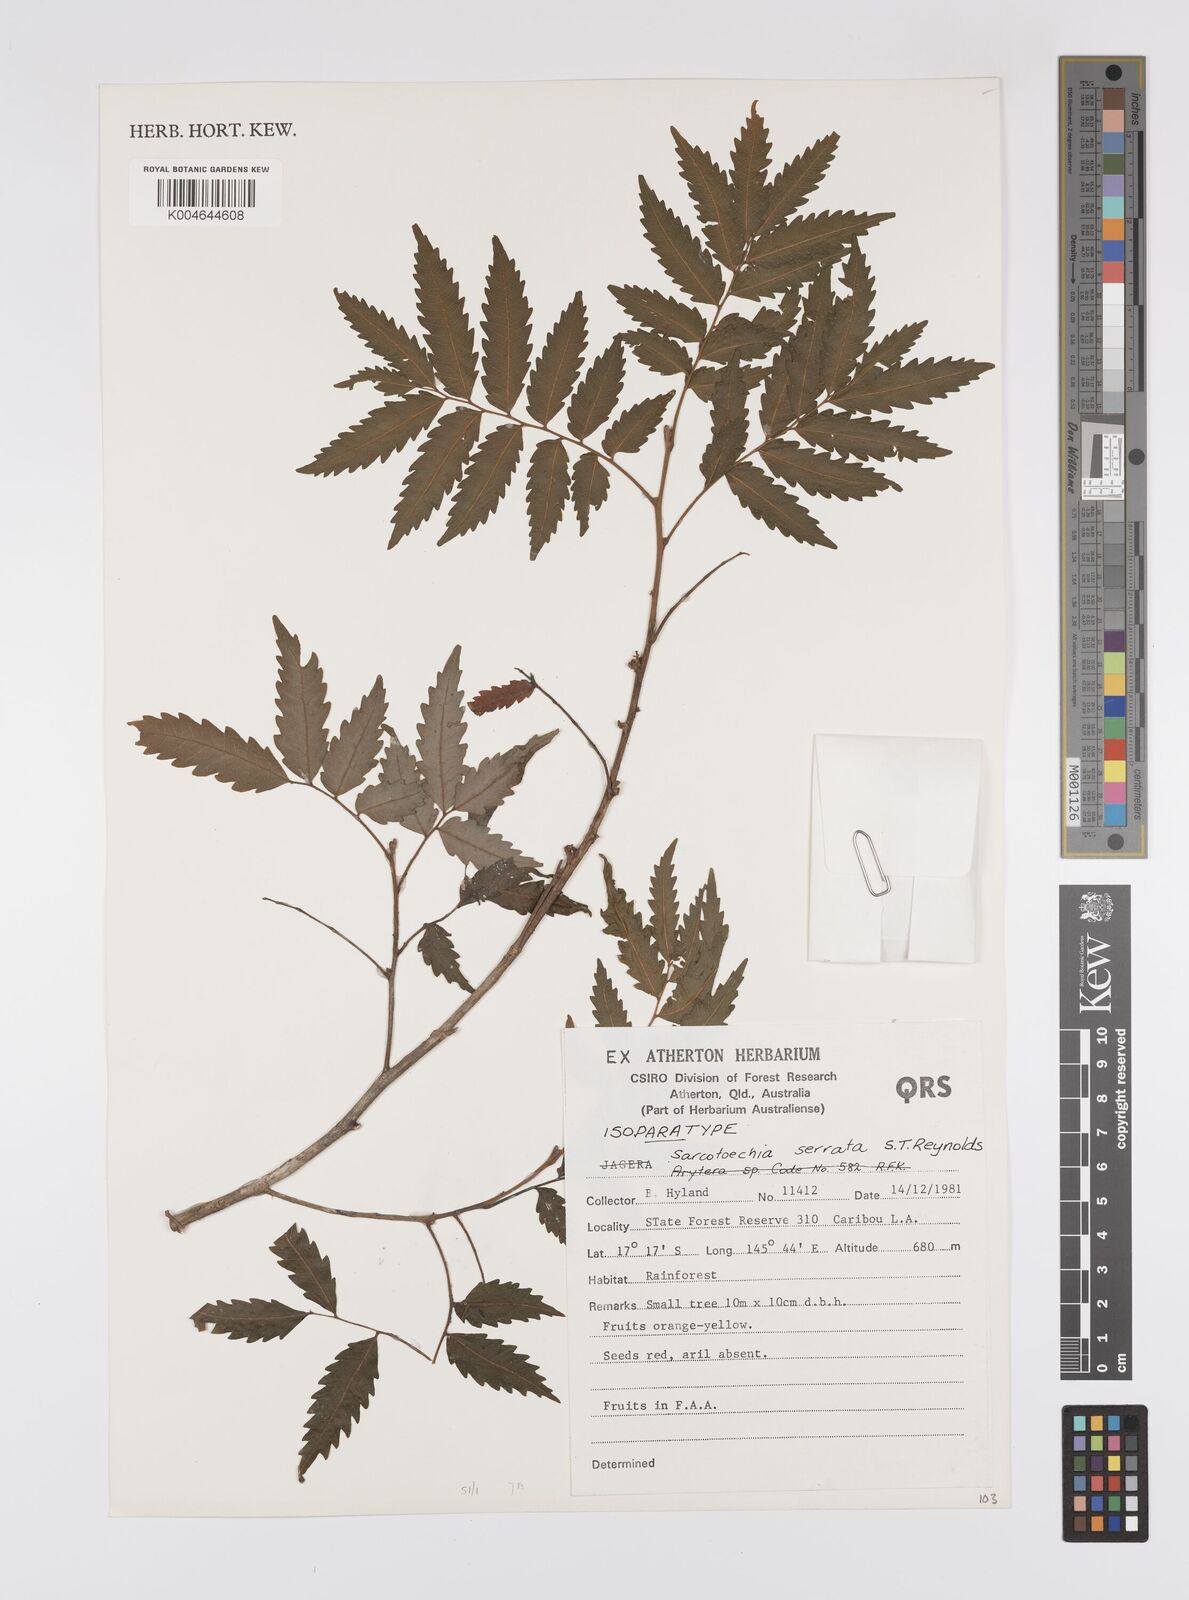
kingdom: Plantae
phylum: Tracheophyta
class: Magnoliopsida
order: Sapindales
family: Sapindaceae
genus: Synima
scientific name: Synima serrata
